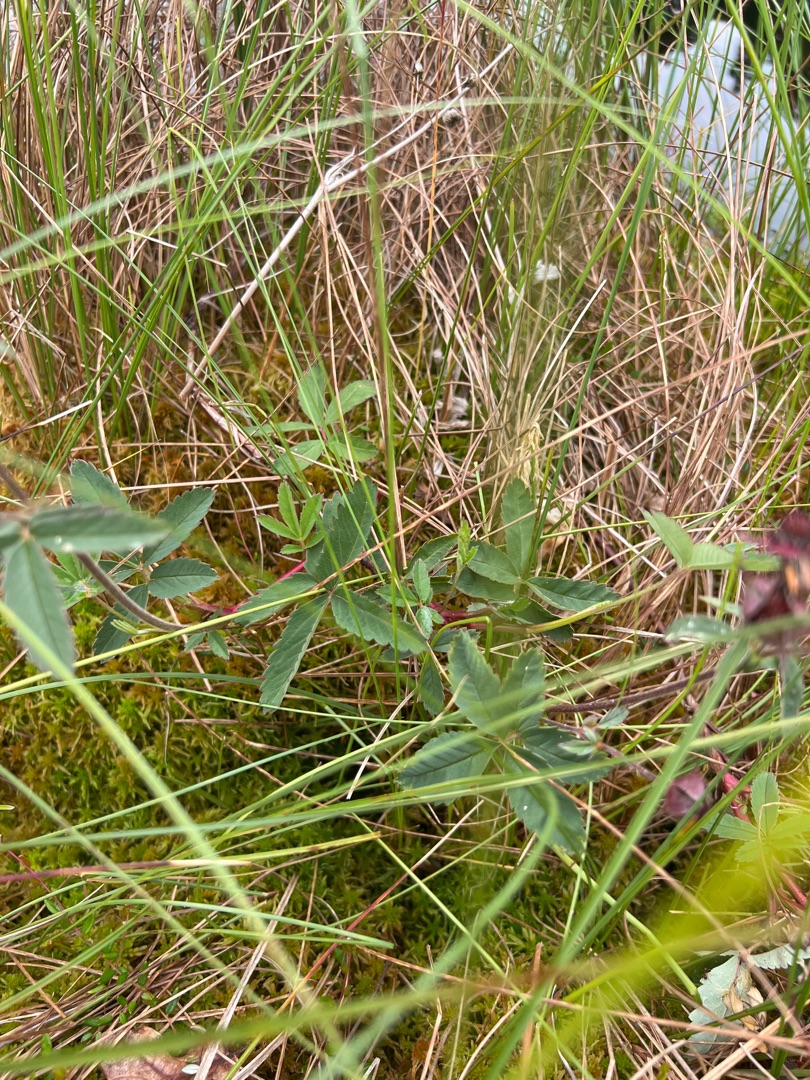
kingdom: Plantae
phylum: Tracheophyta
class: Magnoliopsida
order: Rosales
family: Rosaceae
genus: Comarum
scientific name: Comarum palustre
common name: Kragefod
